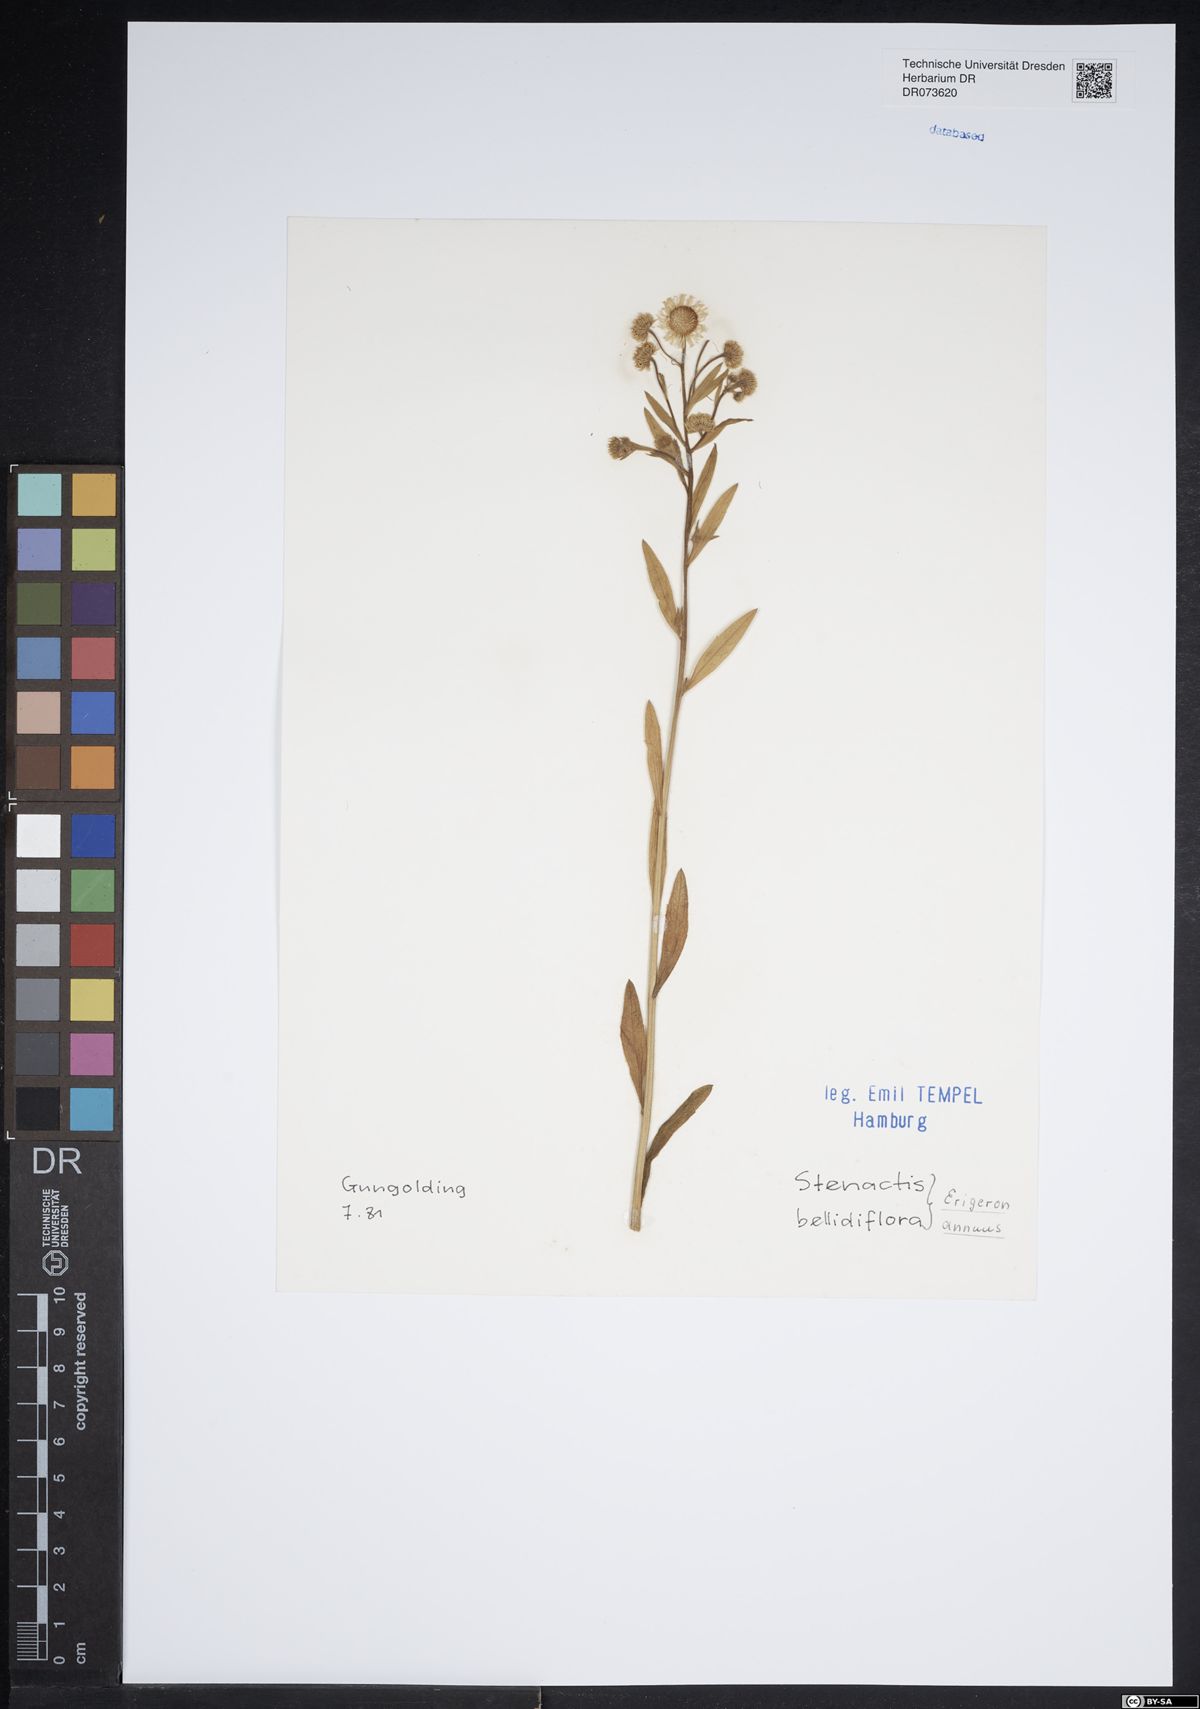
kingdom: Plantae
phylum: Tracheophyta
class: Magnoliopsida
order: Asterales
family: Asteraceae
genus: Erigeron
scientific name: Erigeron annuus
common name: Tall fleabane
